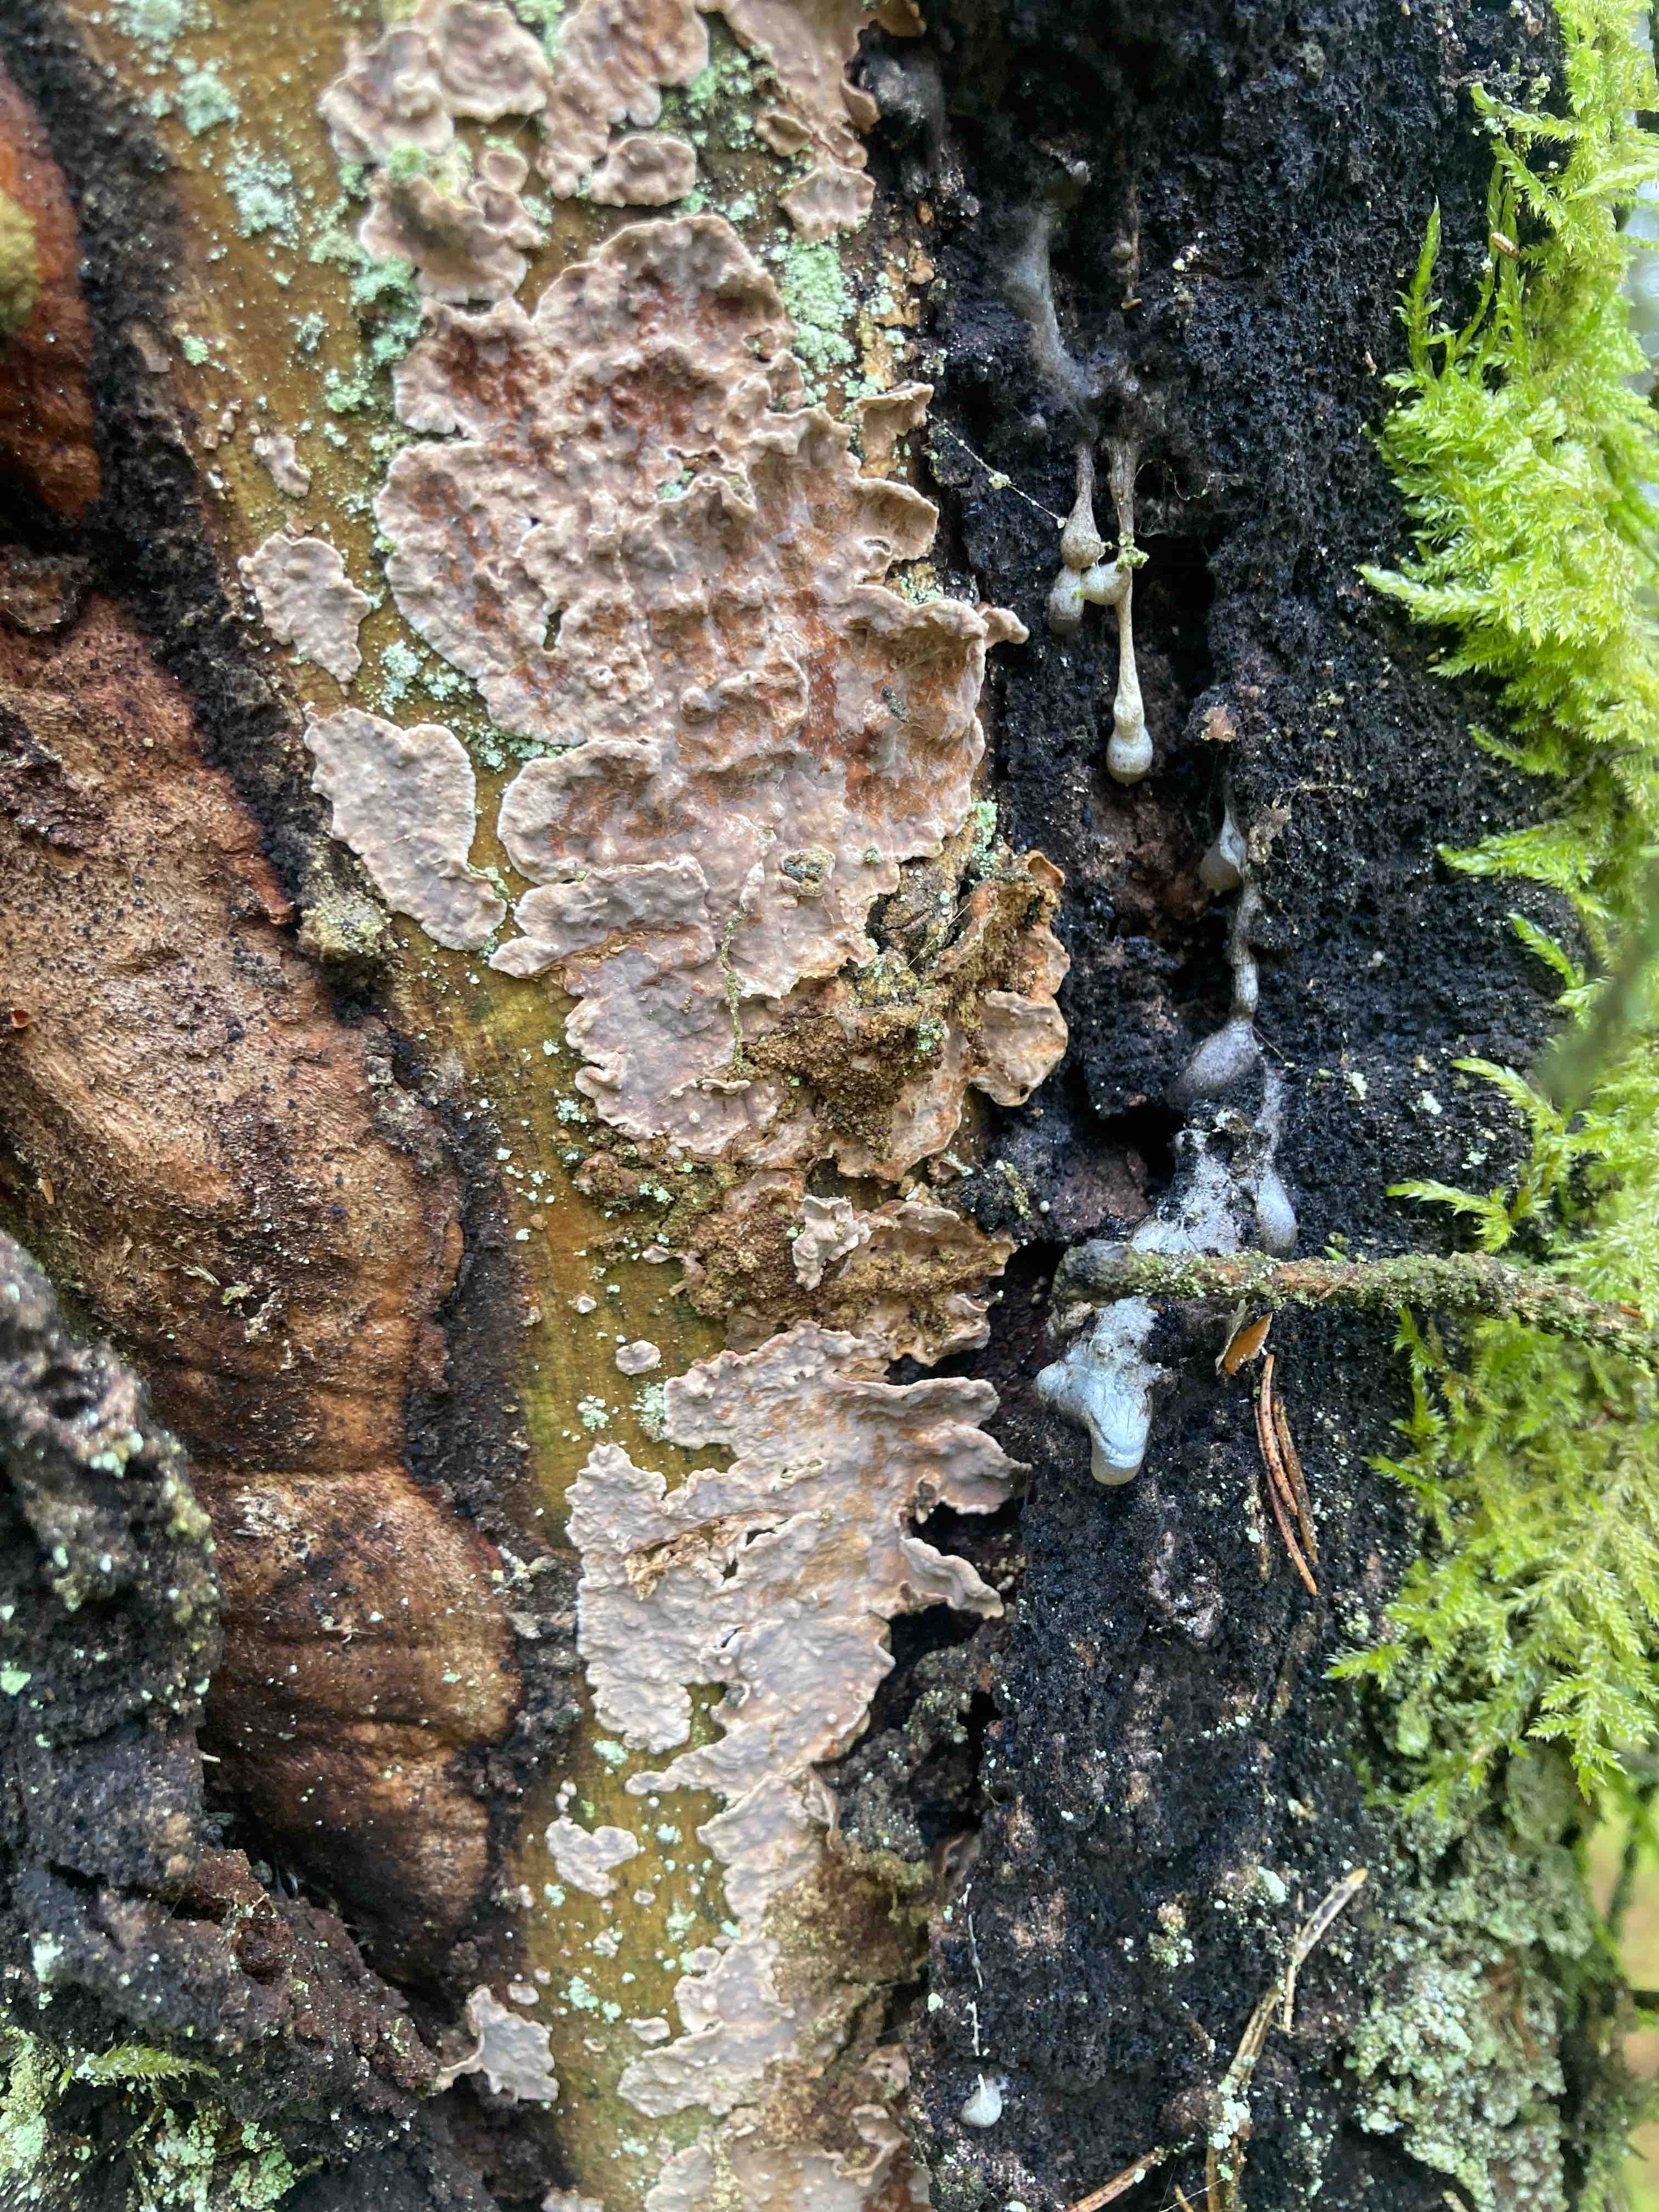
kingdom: Fungi
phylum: Basidiomycota
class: Agaricomycetes
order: Russulales
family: Echinodontiaceae
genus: Amylostereum
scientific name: Amylostereum chailletii
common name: gran-lædersvamp
